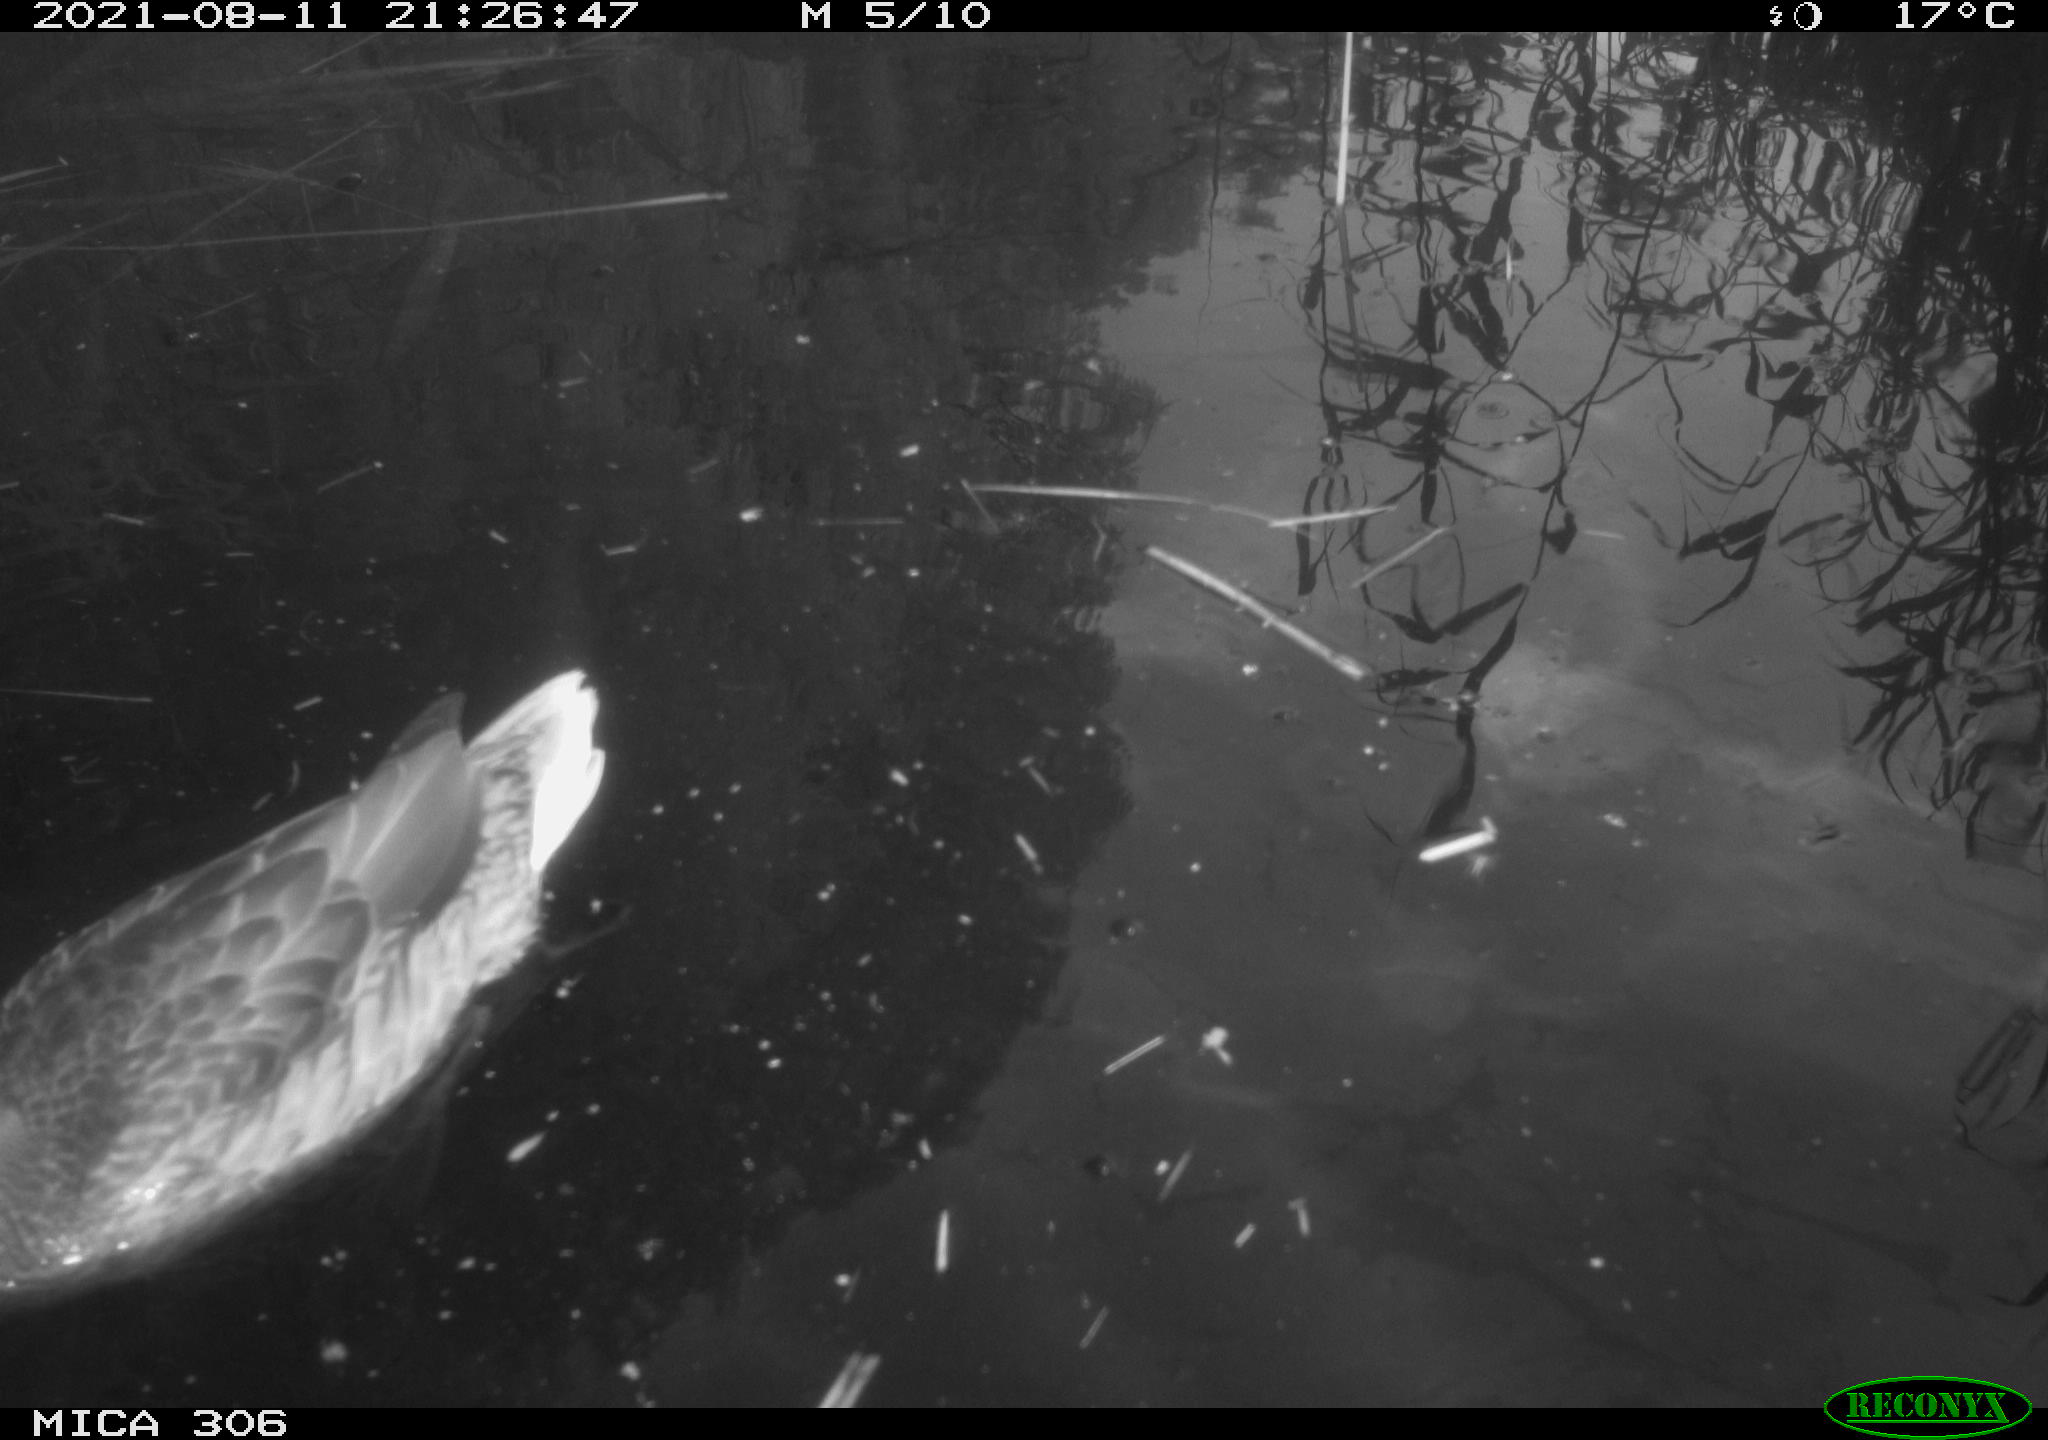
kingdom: Animalia
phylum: Chordata
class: Aves
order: Anseriformes
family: Anatidae
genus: Anas
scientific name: Anas platyrhynchos
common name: Mallard
